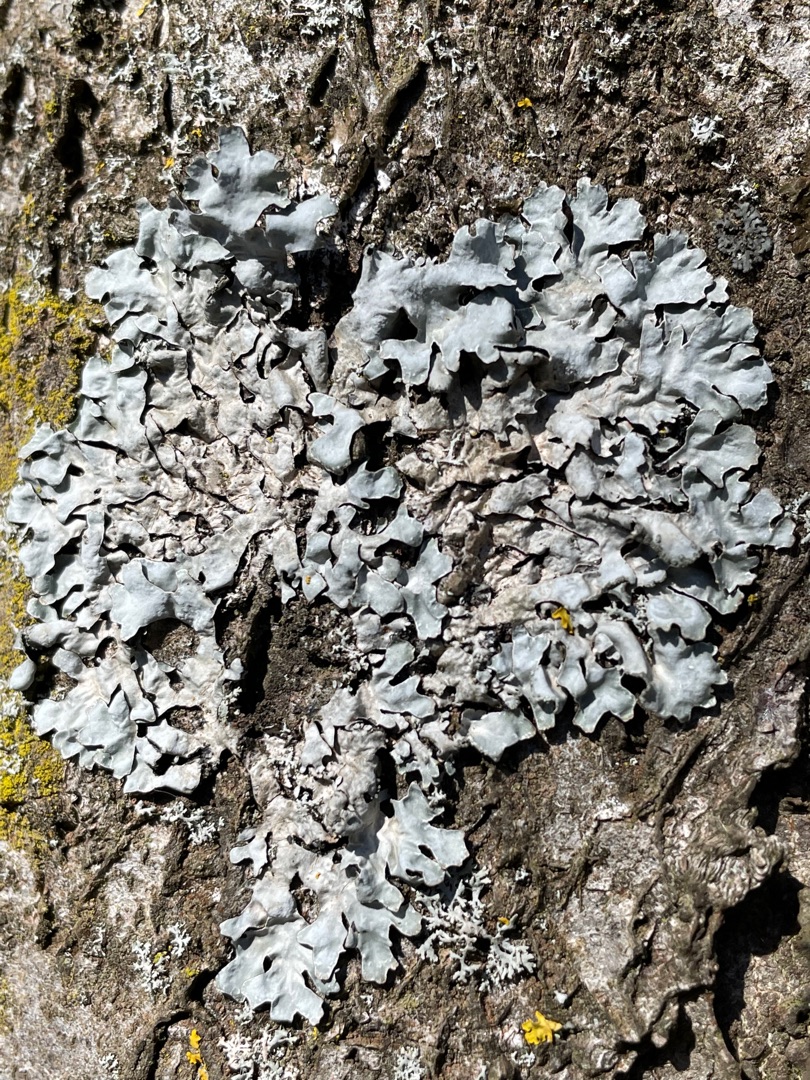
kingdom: Fungi
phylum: Ascomycota
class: Lecanoromycetes
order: Lecanorales
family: Parmeliaceae
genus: Parmelia
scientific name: Parmelia sulcata
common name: Rynket skållav
